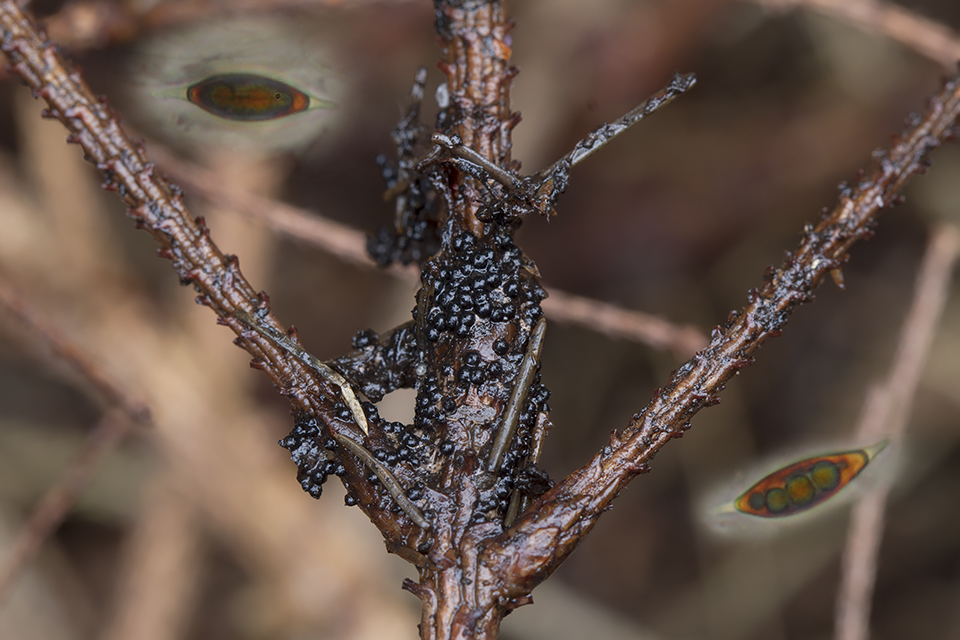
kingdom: Fungi
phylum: Ascomycota
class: Sordariomycetes
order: Xylariales
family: Xylariaceae
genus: Rosellinia
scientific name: Rosellinia
